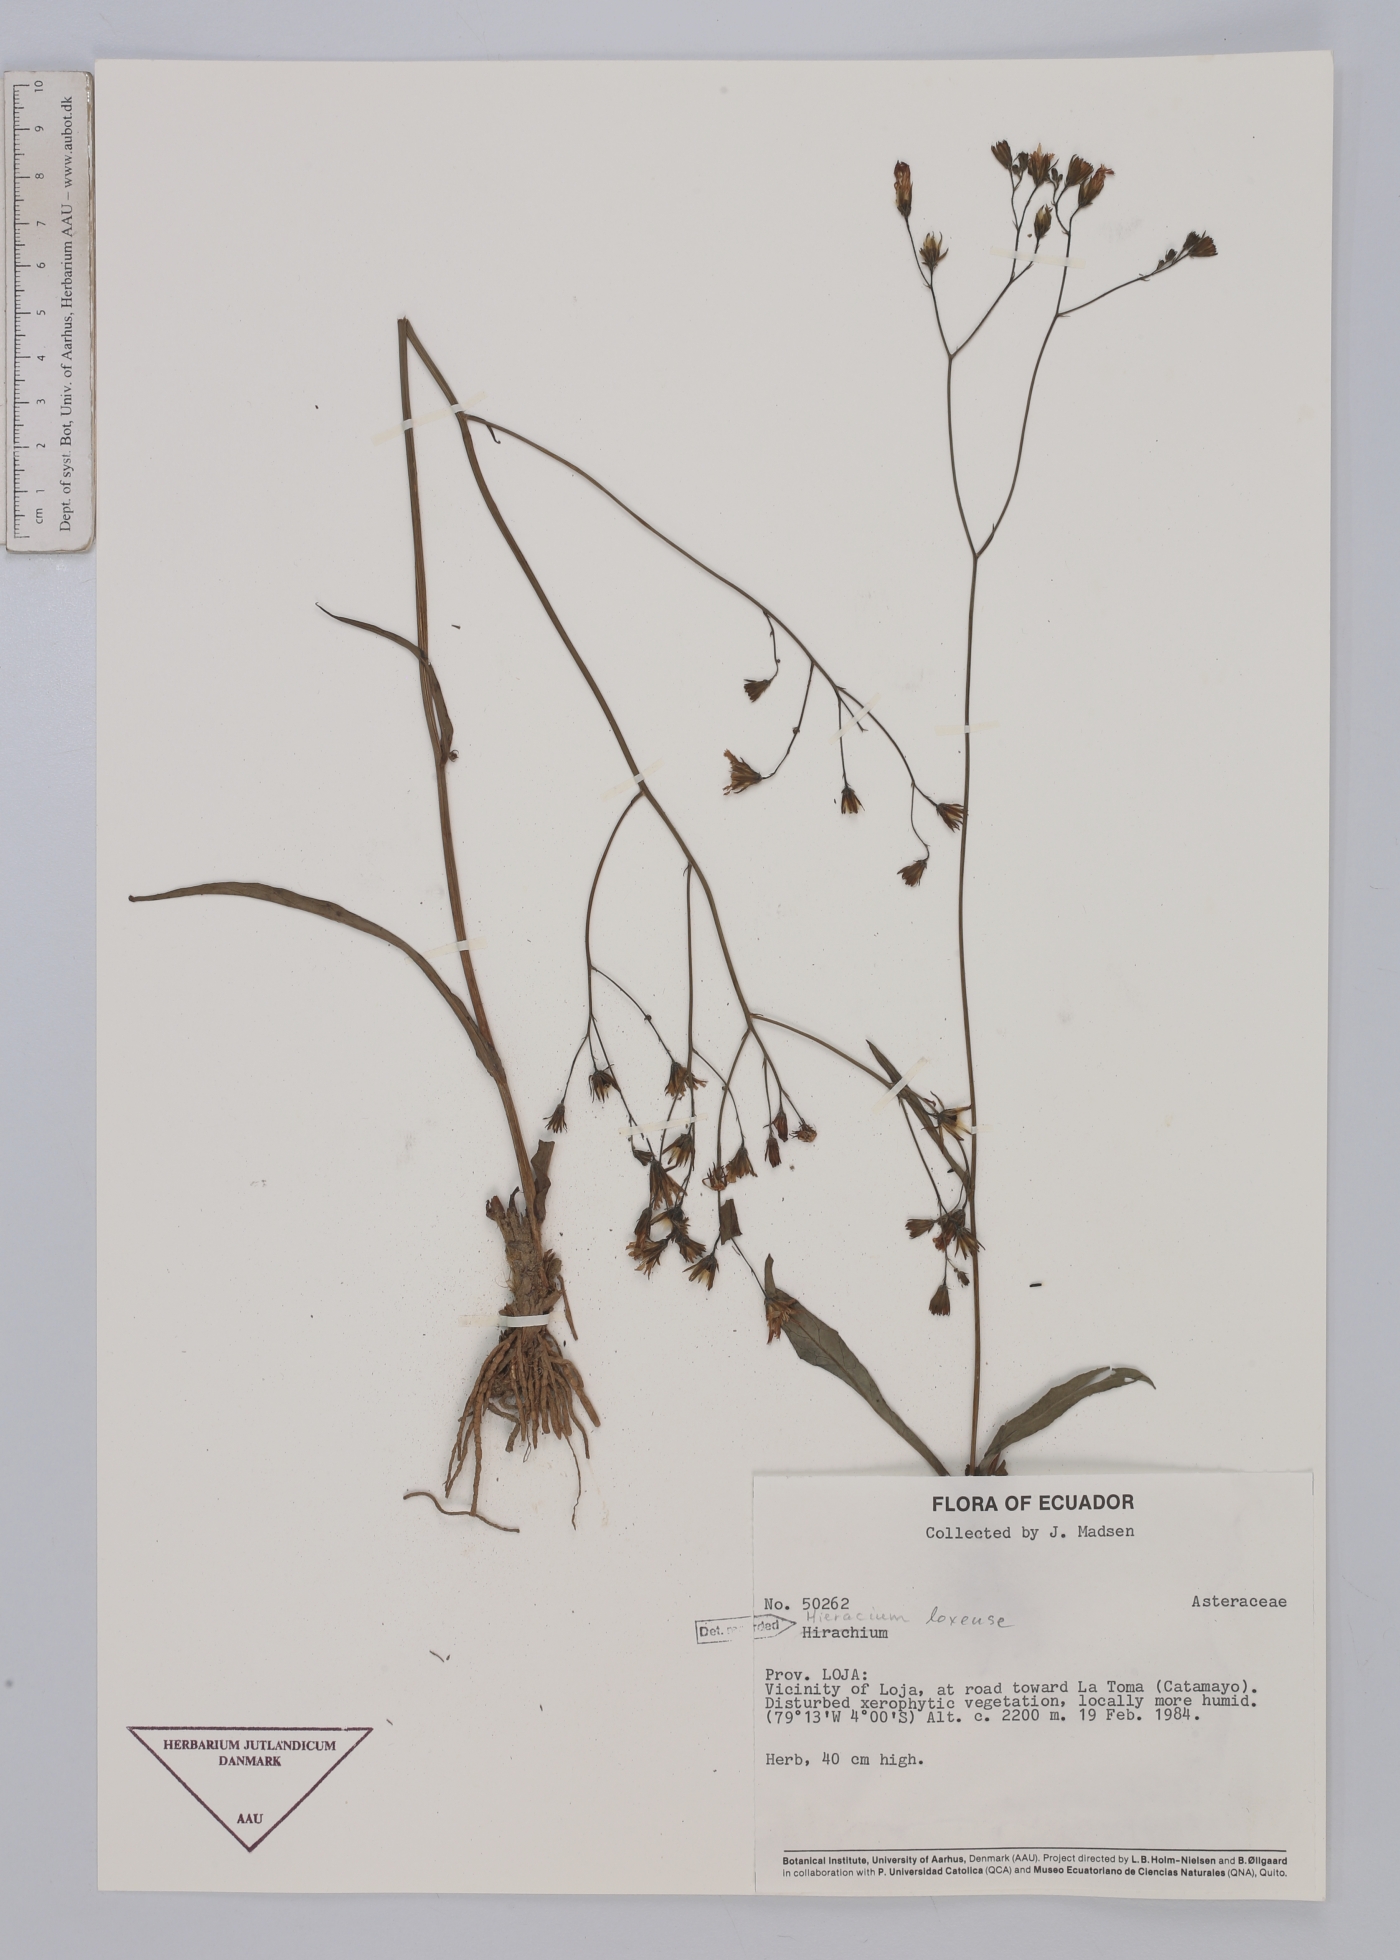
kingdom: Plantae
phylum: Tracheophyta
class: Magnoliopsida
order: Asterales
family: Asteraceae
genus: Hieracium
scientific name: Hieracium lagopus
